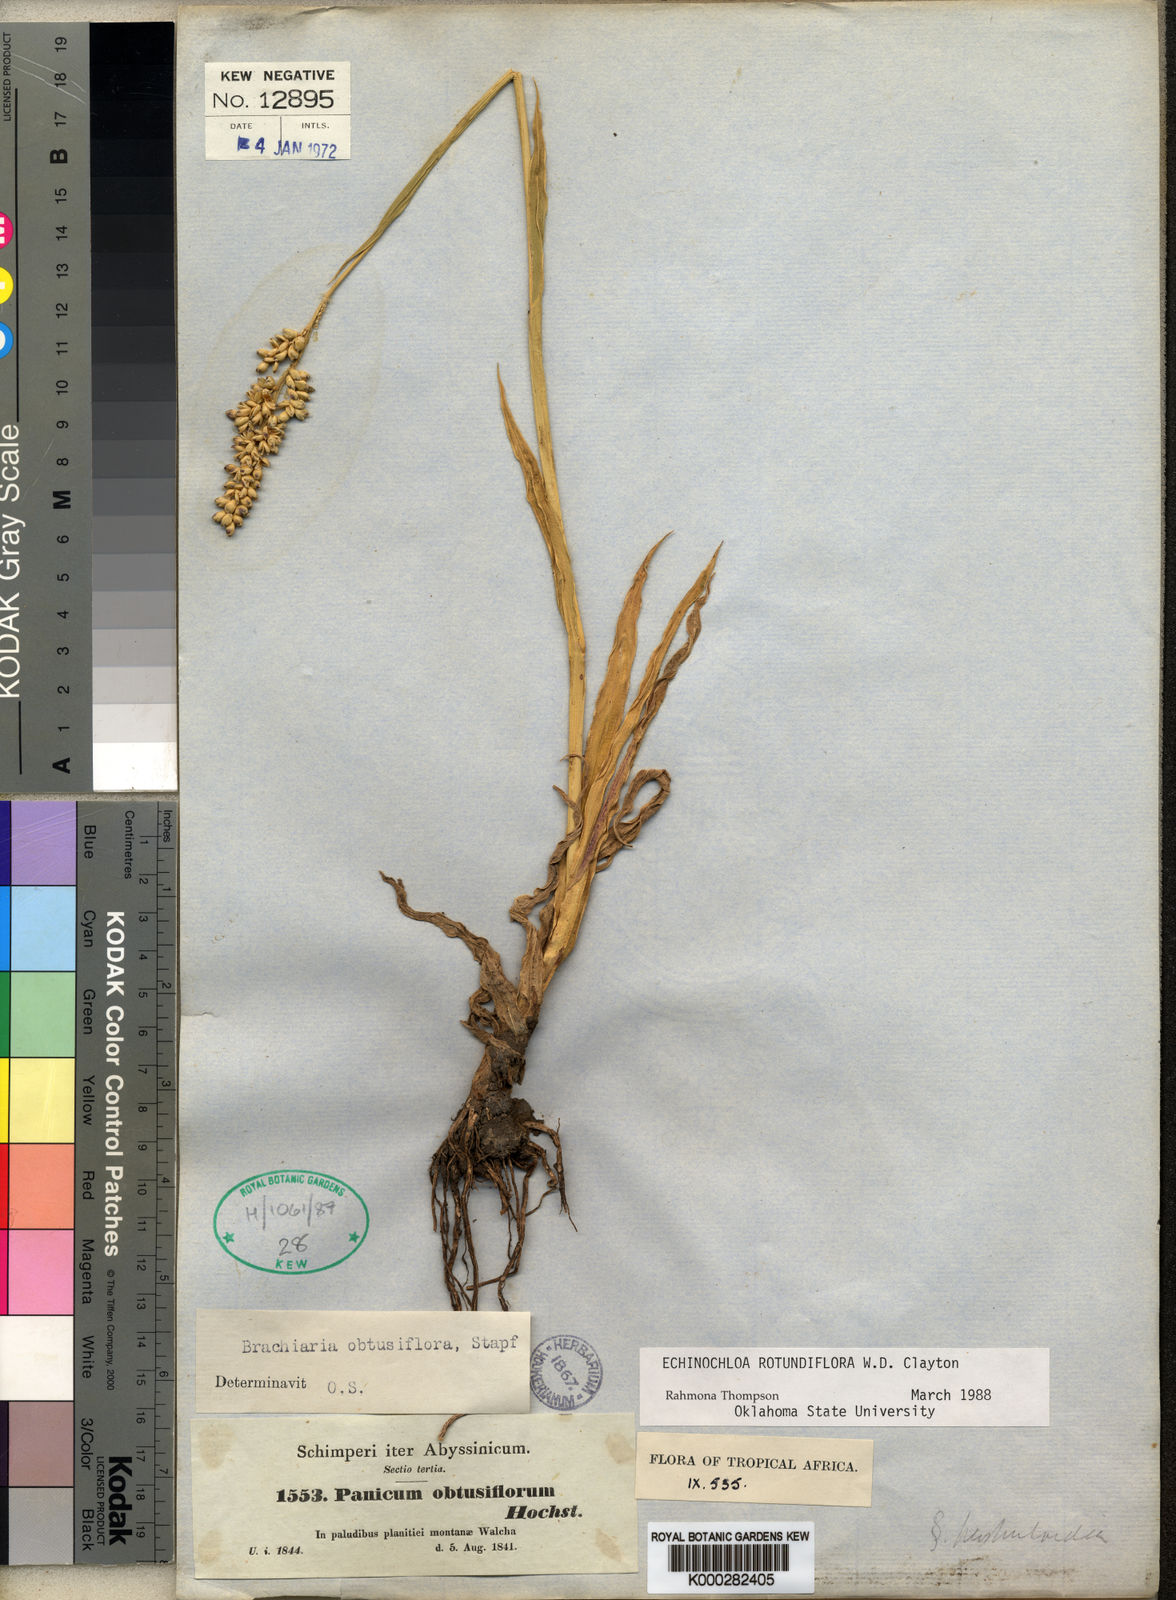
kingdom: Plantae
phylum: Tracheophyta
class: Liliopsida
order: Poales
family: Poaceae
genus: Echinochloa
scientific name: Echinochloa rotundiflora
